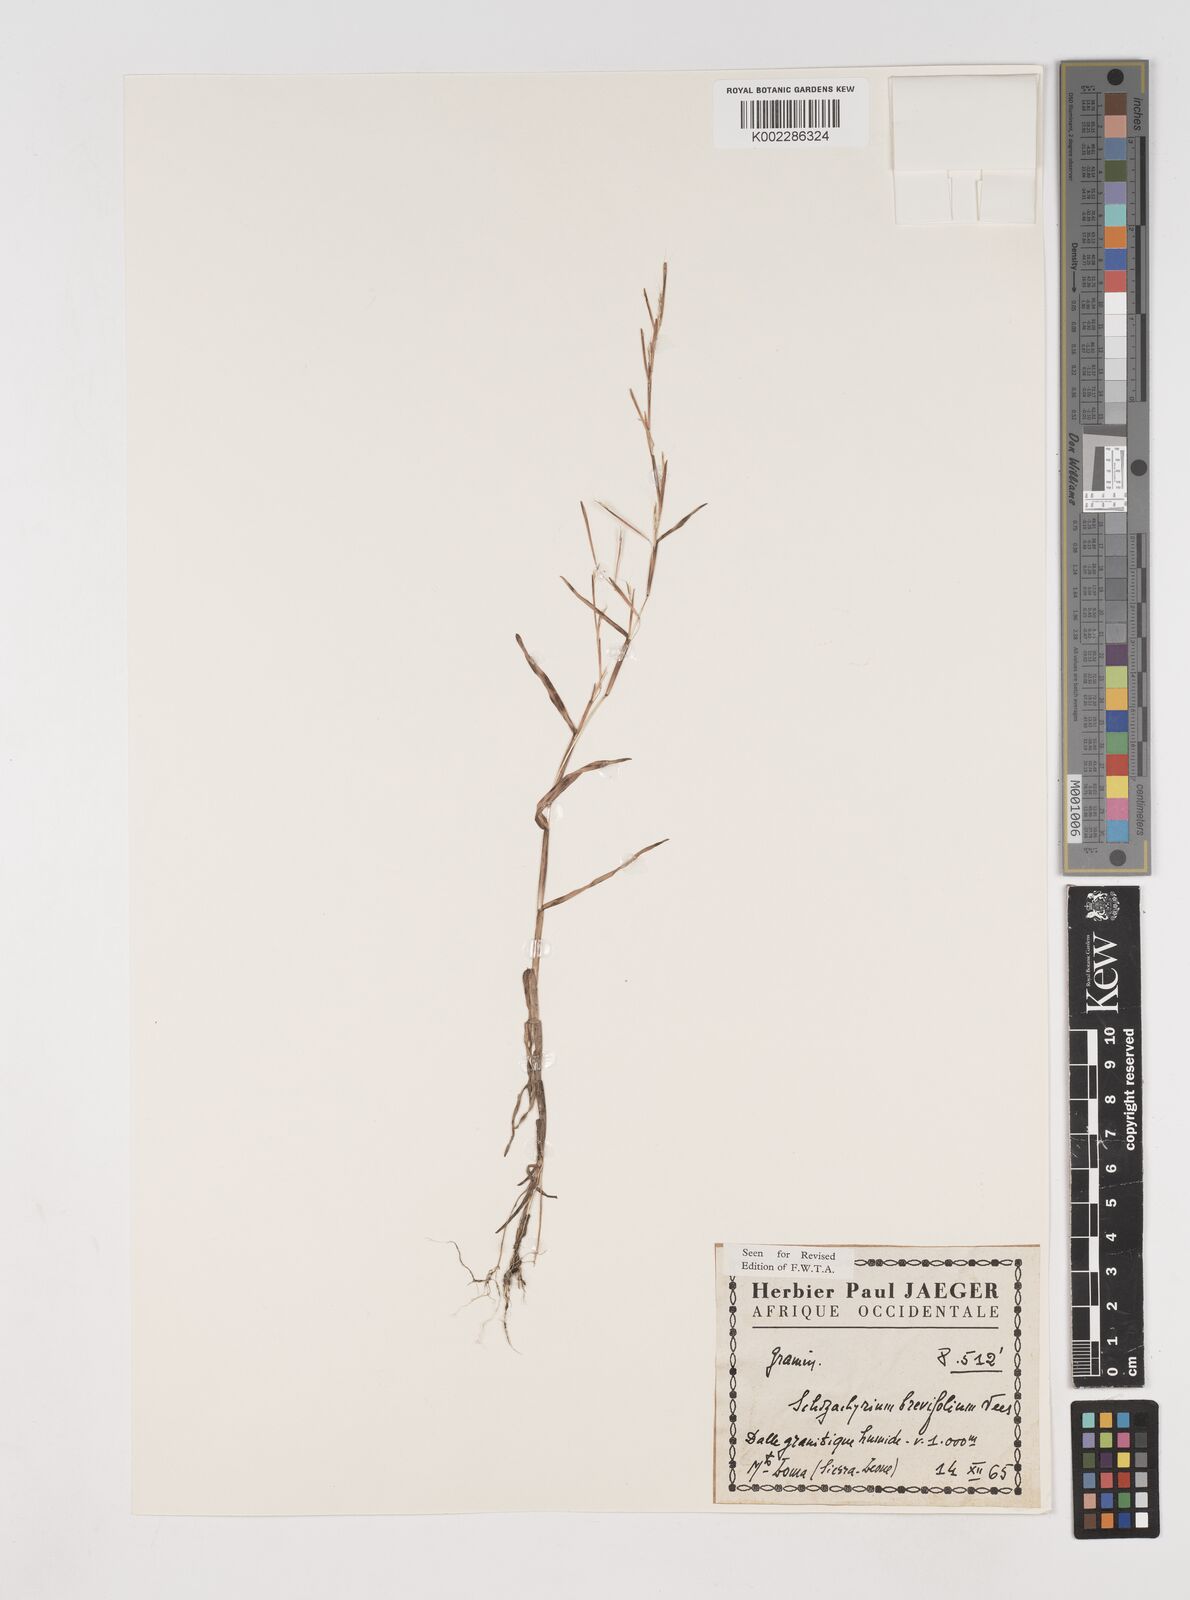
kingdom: Plantae
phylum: Tracheophyta
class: Liliopsida
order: Poales
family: Poaceae
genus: Schizachyrium
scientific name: Schizachyrium brevifolium
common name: Serillo dulce
